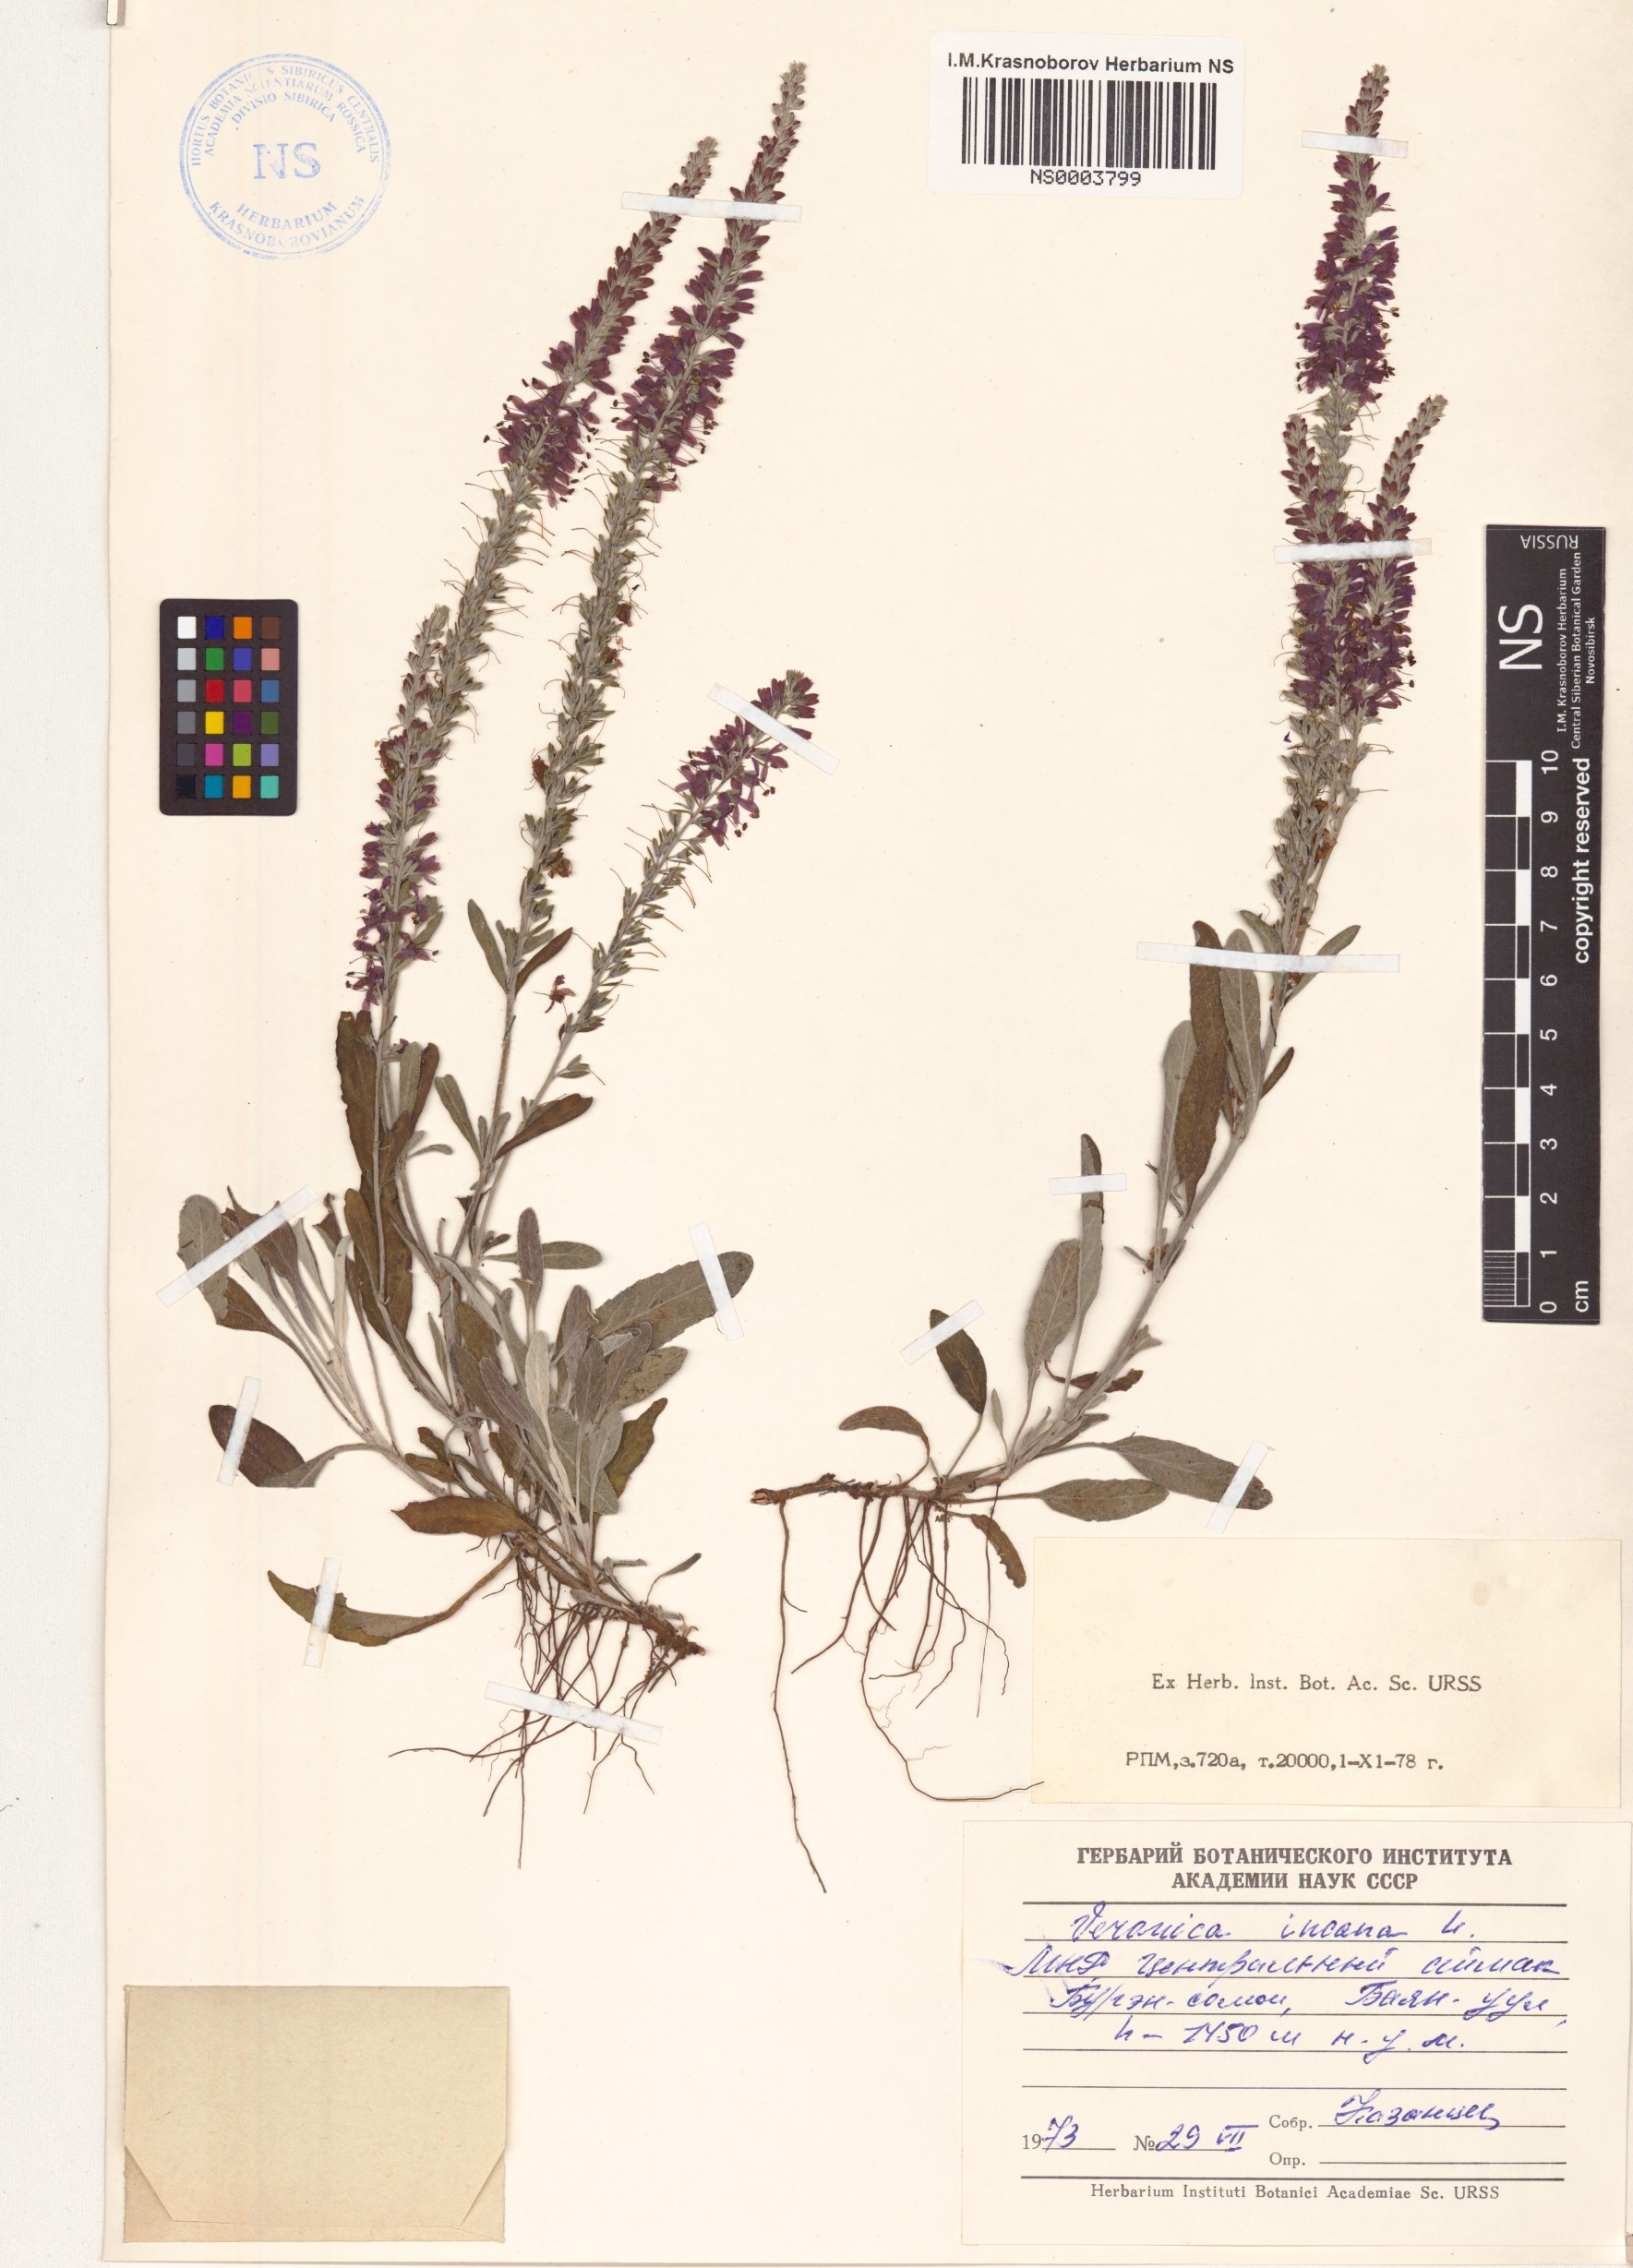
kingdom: Plantae
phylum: Tracheophyta
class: Magnoliopsida
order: Lamiales
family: Plantaginaceae
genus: Veronica
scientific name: Veronica incana
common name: Silver speedwell
